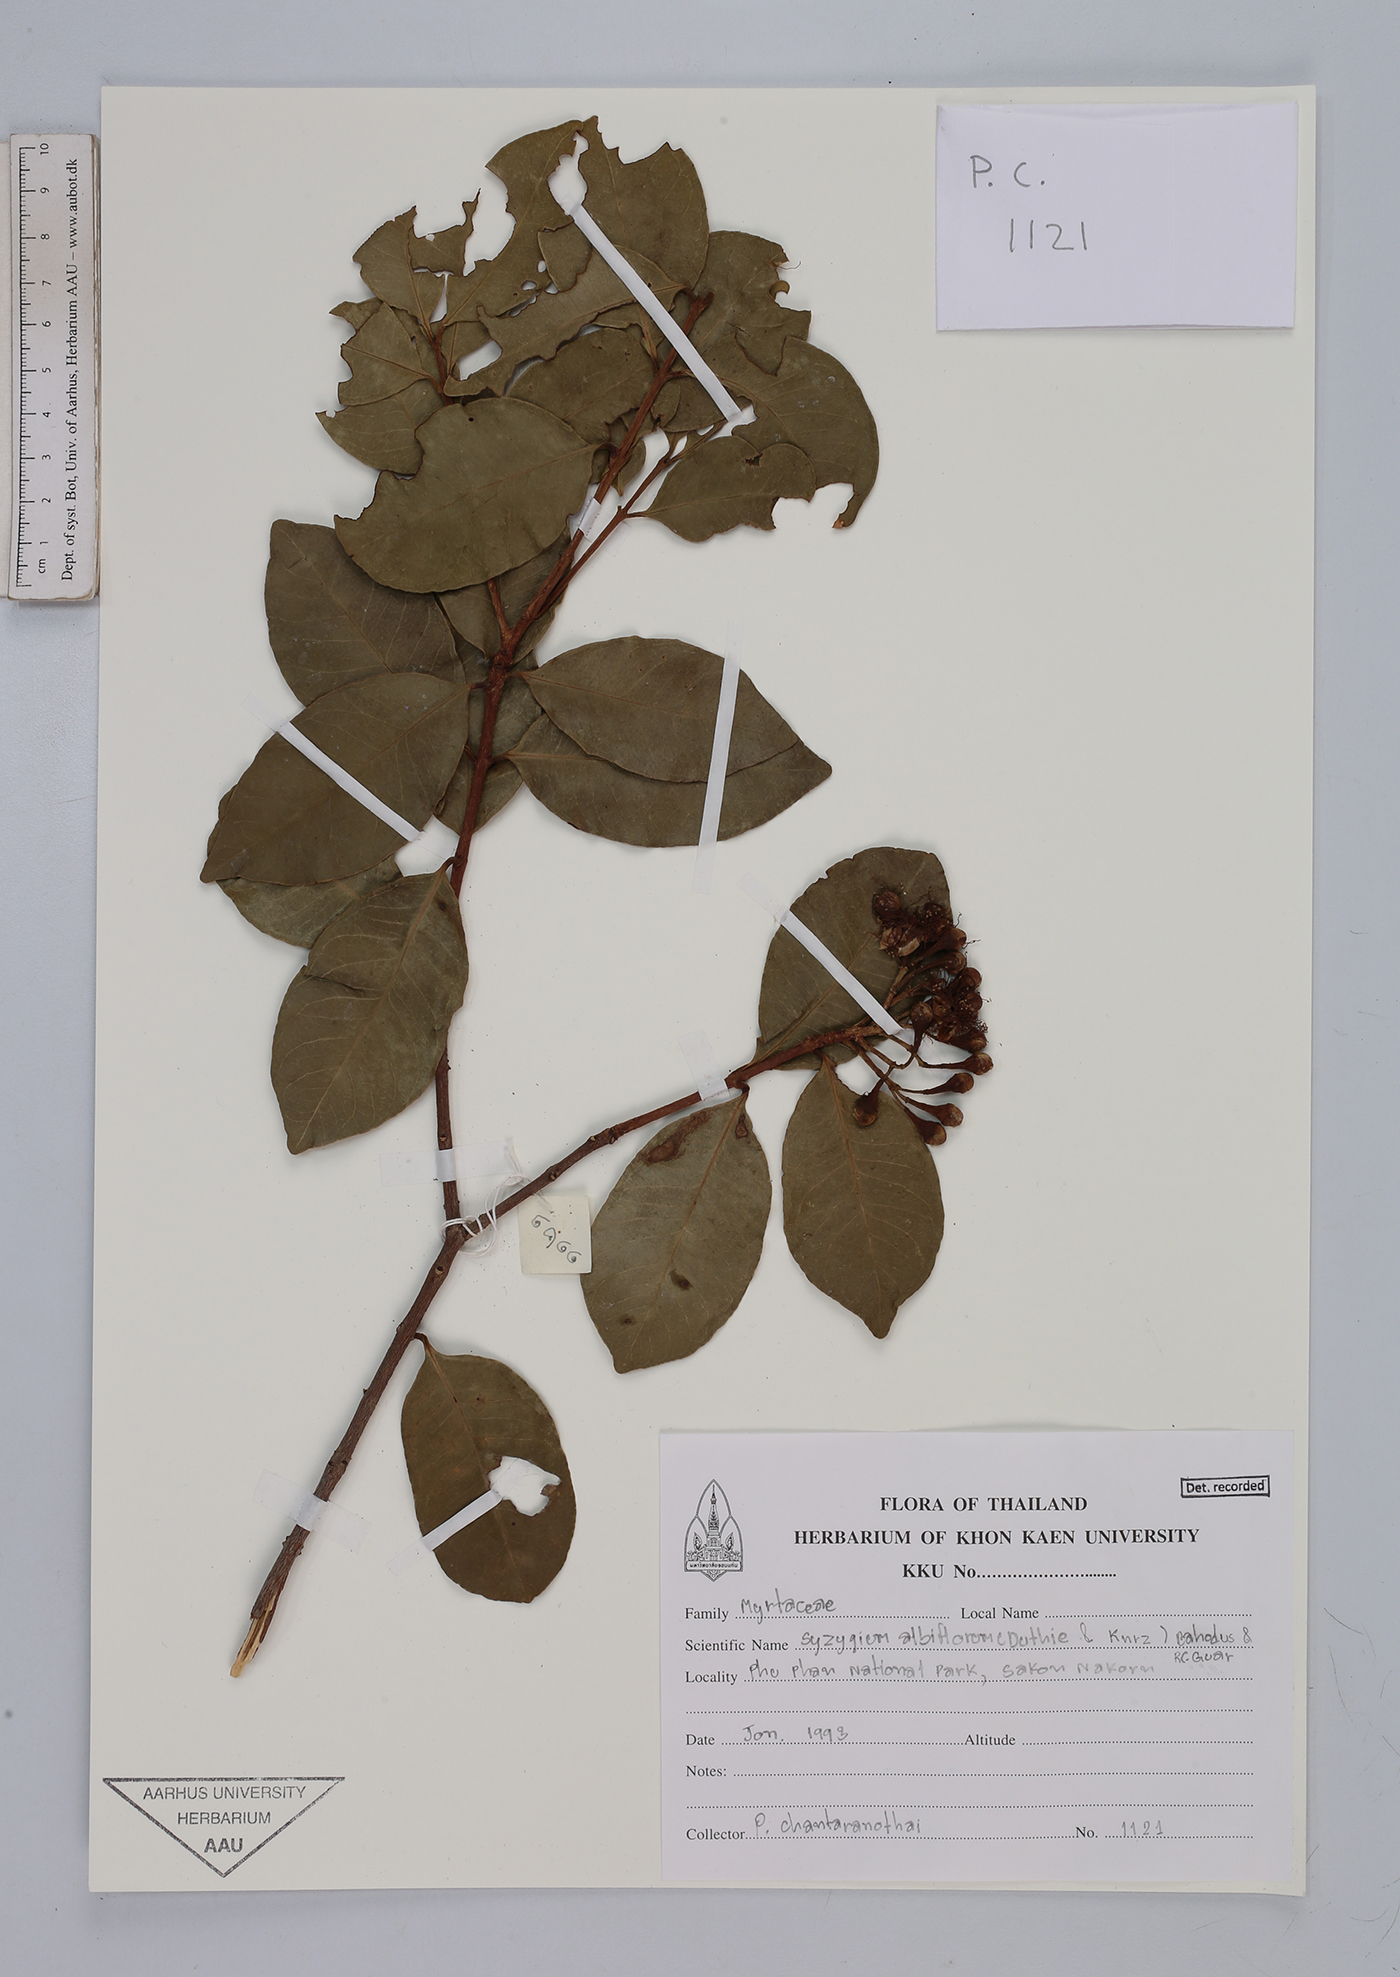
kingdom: Plantae
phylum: Tracheophyta
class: Magnoliopsida
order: Myrtales
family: Myrtaceae
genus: Syzygium
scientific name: Syzygium albiflorum
